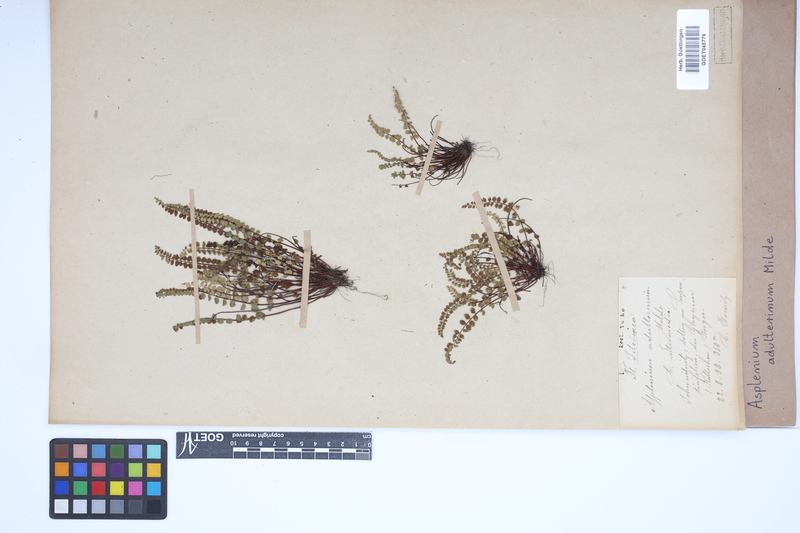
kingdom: Plantae
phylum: Tracheophyta
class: Polypodiopsida
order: Polypodiales
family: Aspleniaceae
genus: Asplenium
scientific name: Asplenium adulterinum
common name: Adulterated spleenwort
